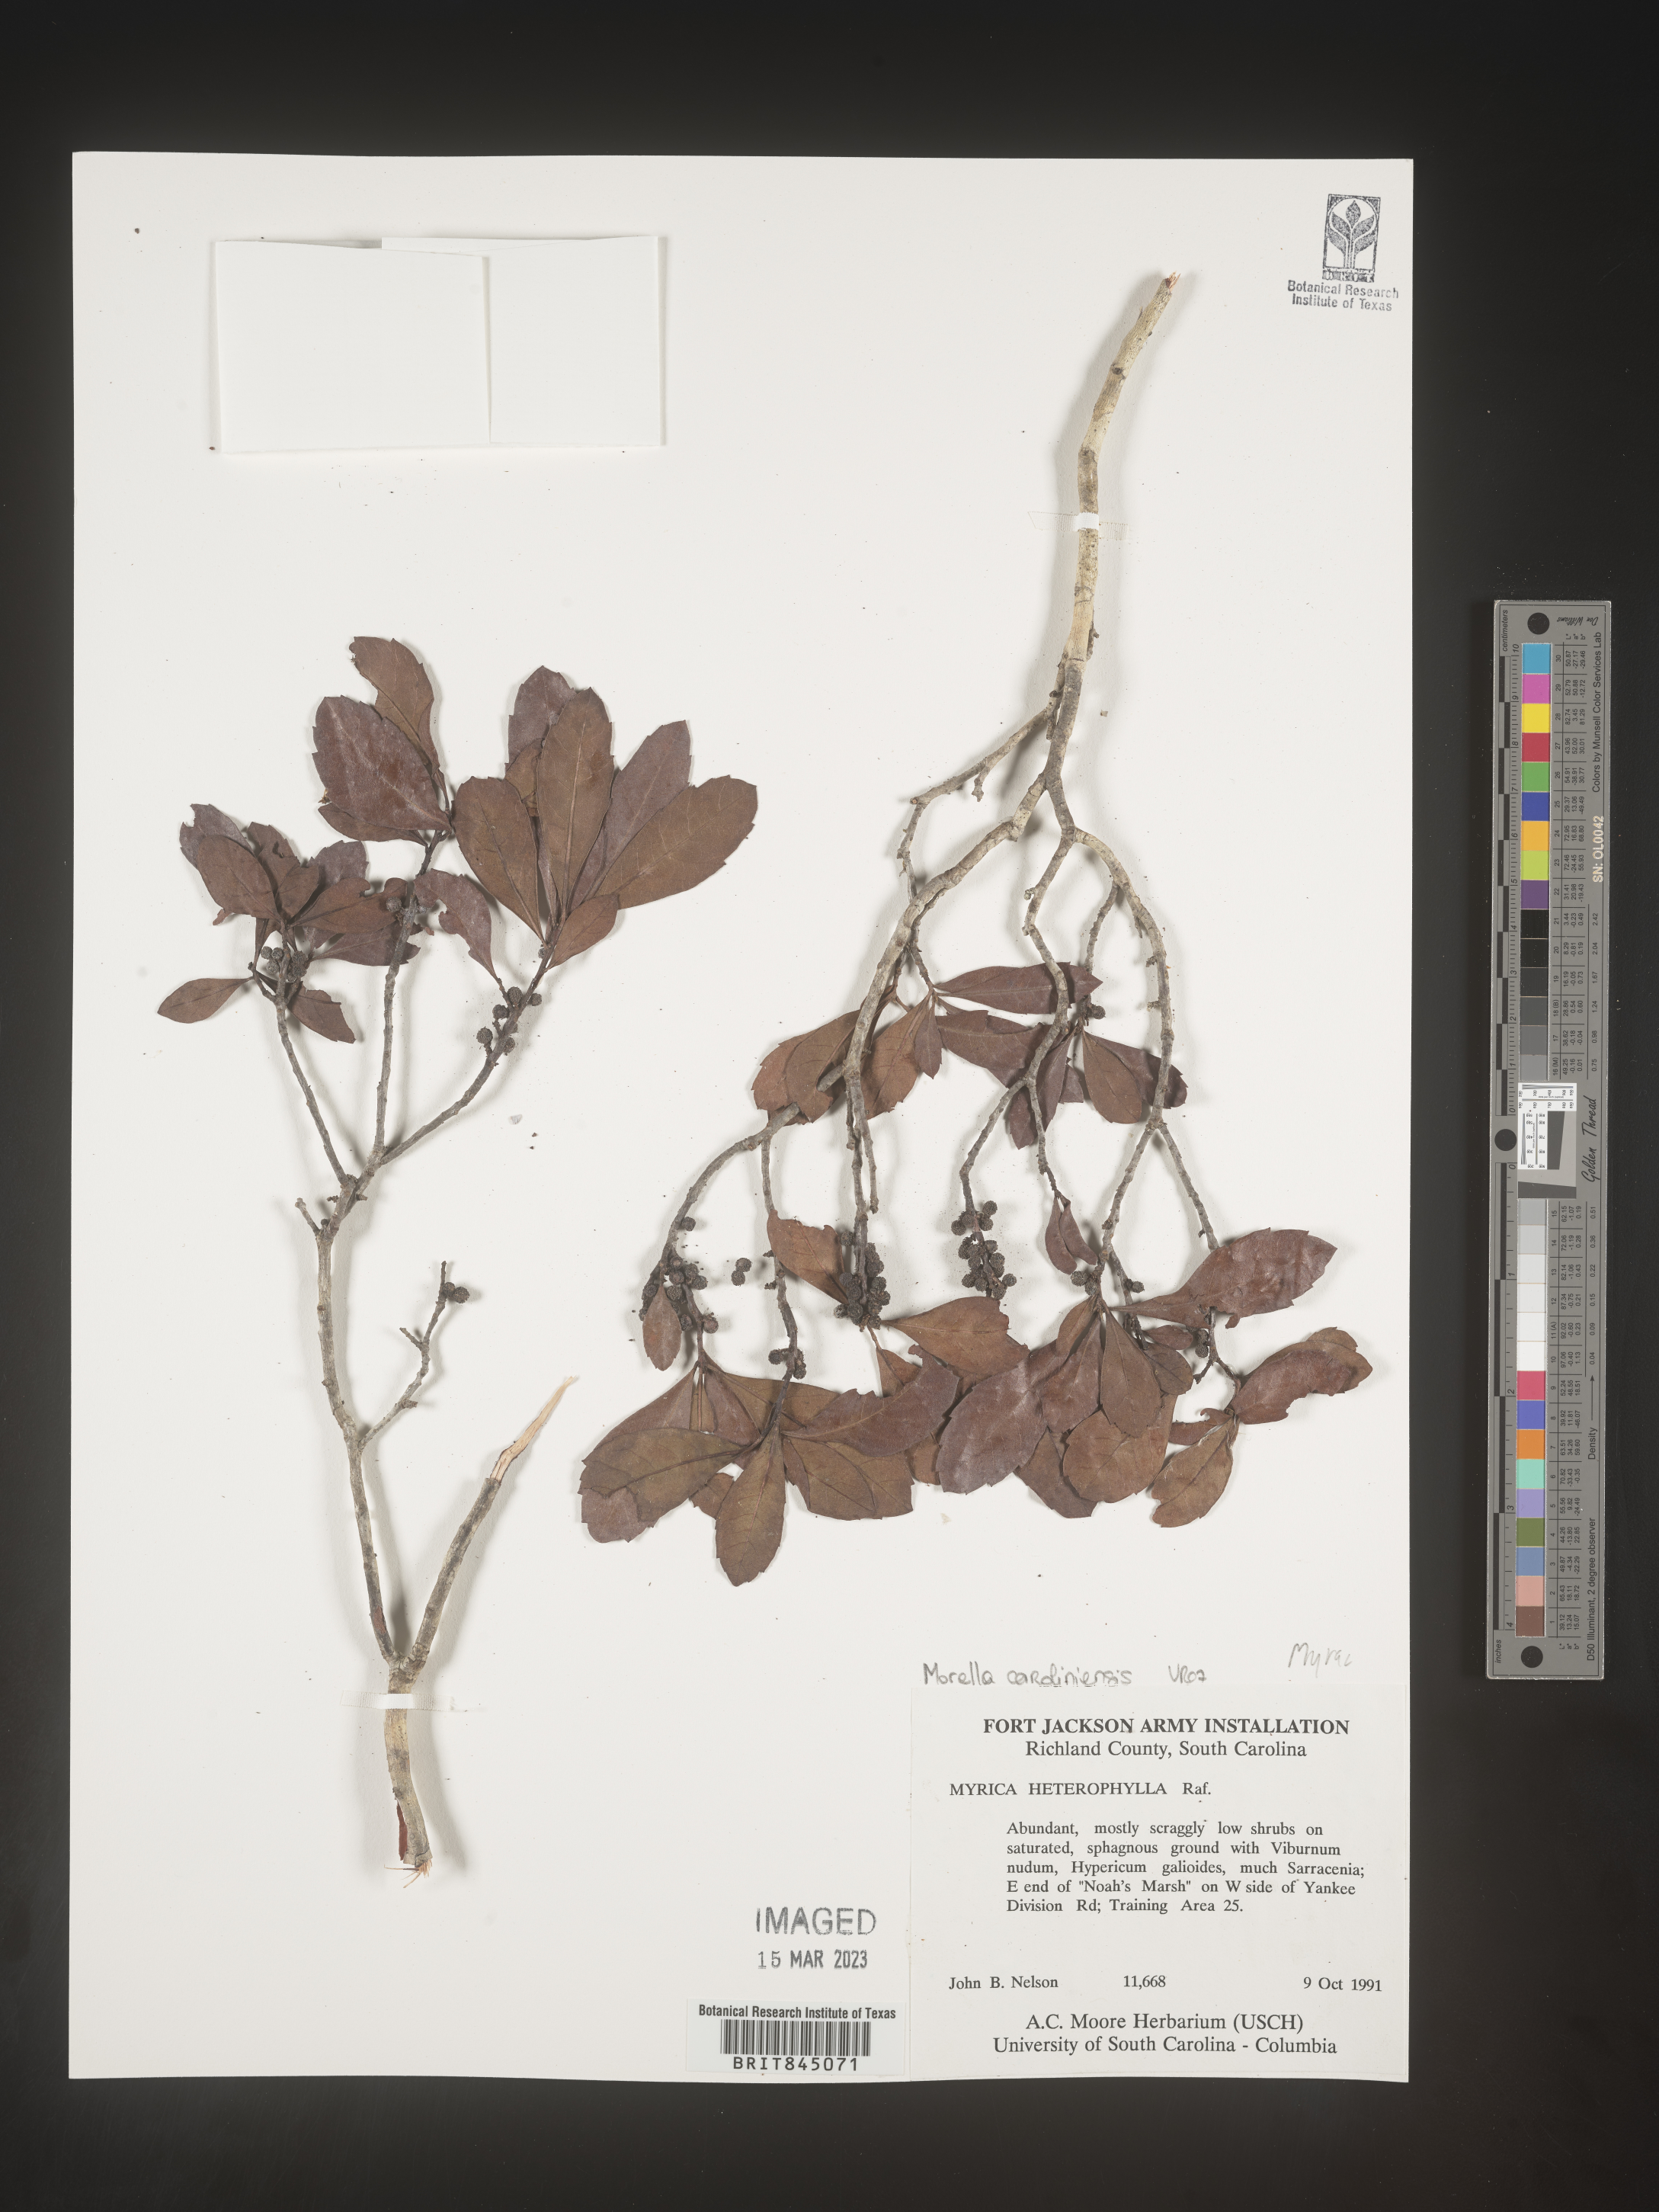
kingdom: Plantae
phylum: Tracheophyta
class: Magnoliopsida
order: Fagales
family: Myricaceae
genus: Morella
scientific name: Morella caroliniensis
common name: Evergreen bayberry
